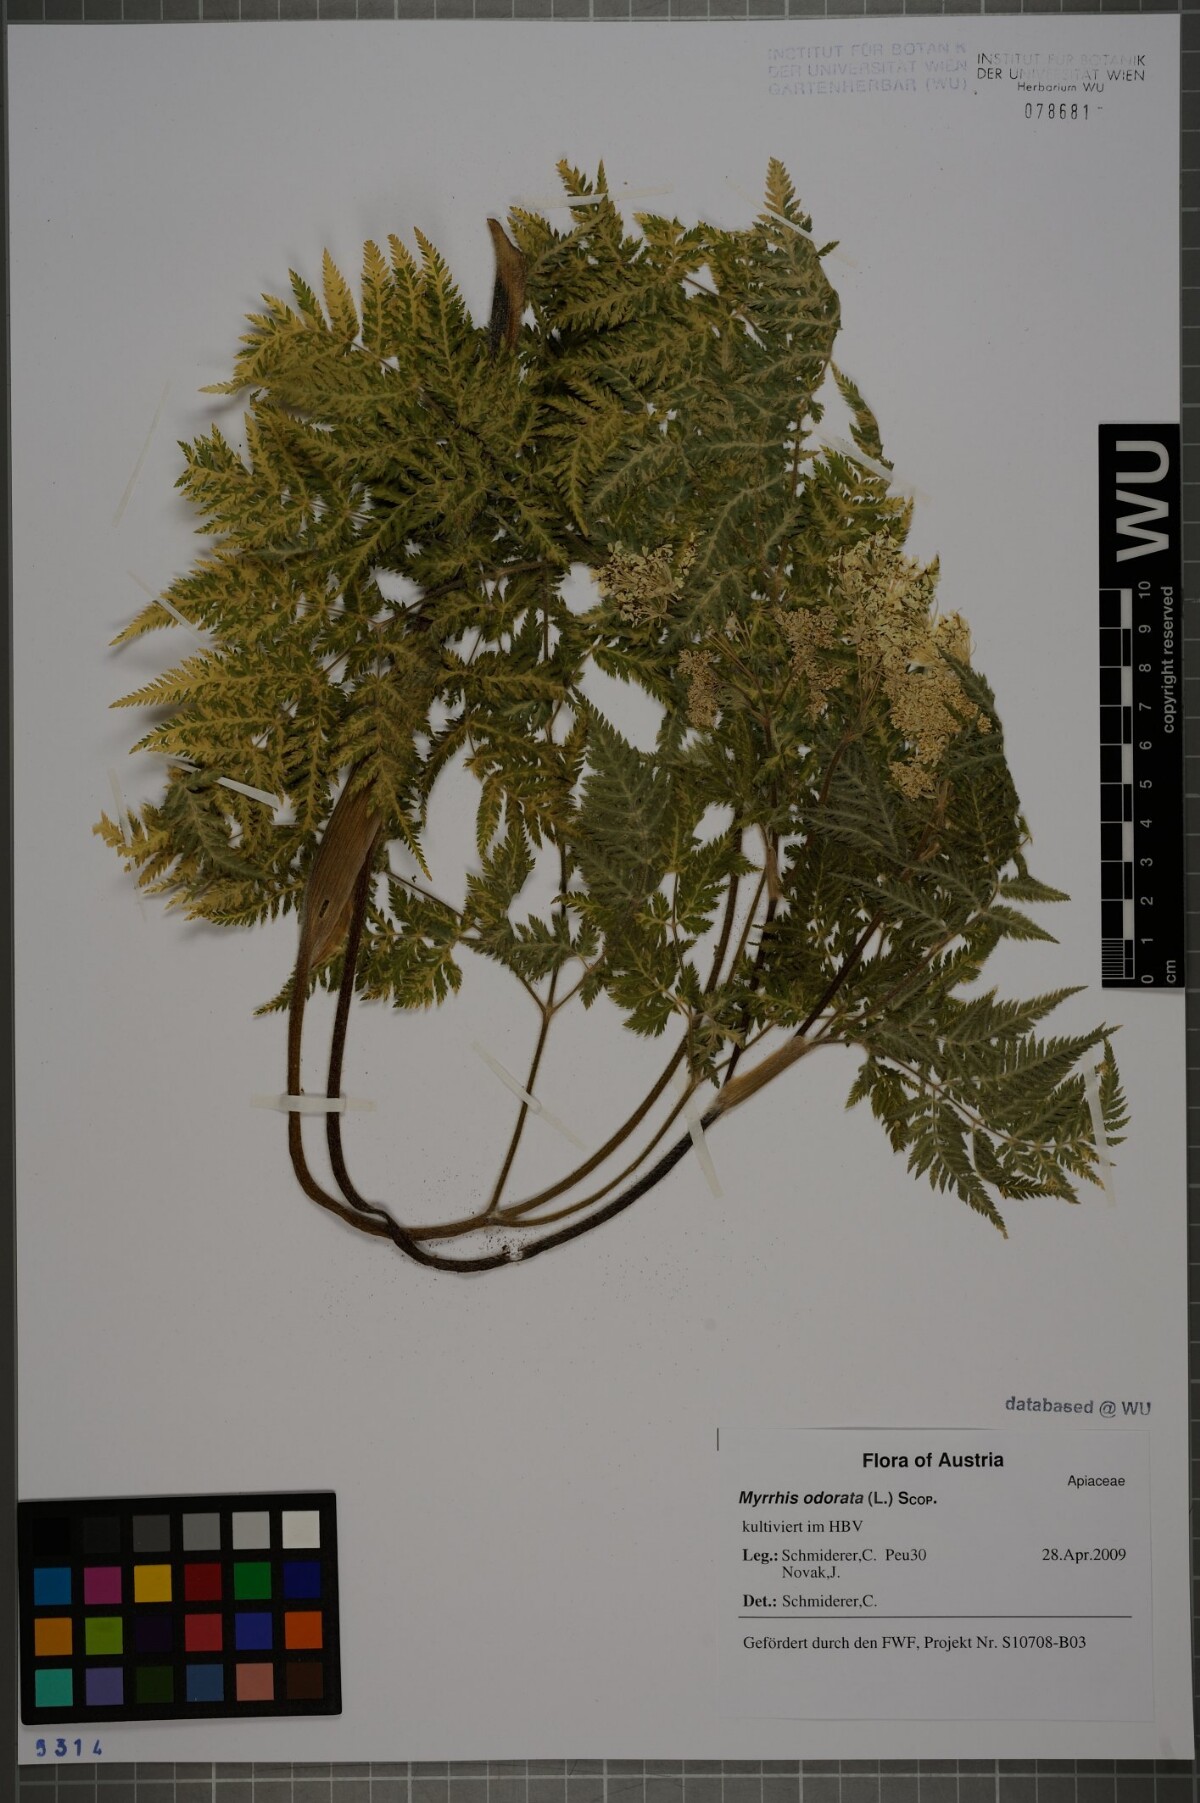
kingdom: Plantae
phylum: Tracheophyta
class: Magnoliopsida
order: Apiales
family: Apiaceae
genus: Myrrhis
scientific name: Myrrhis odorata
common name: Sweet cicely
